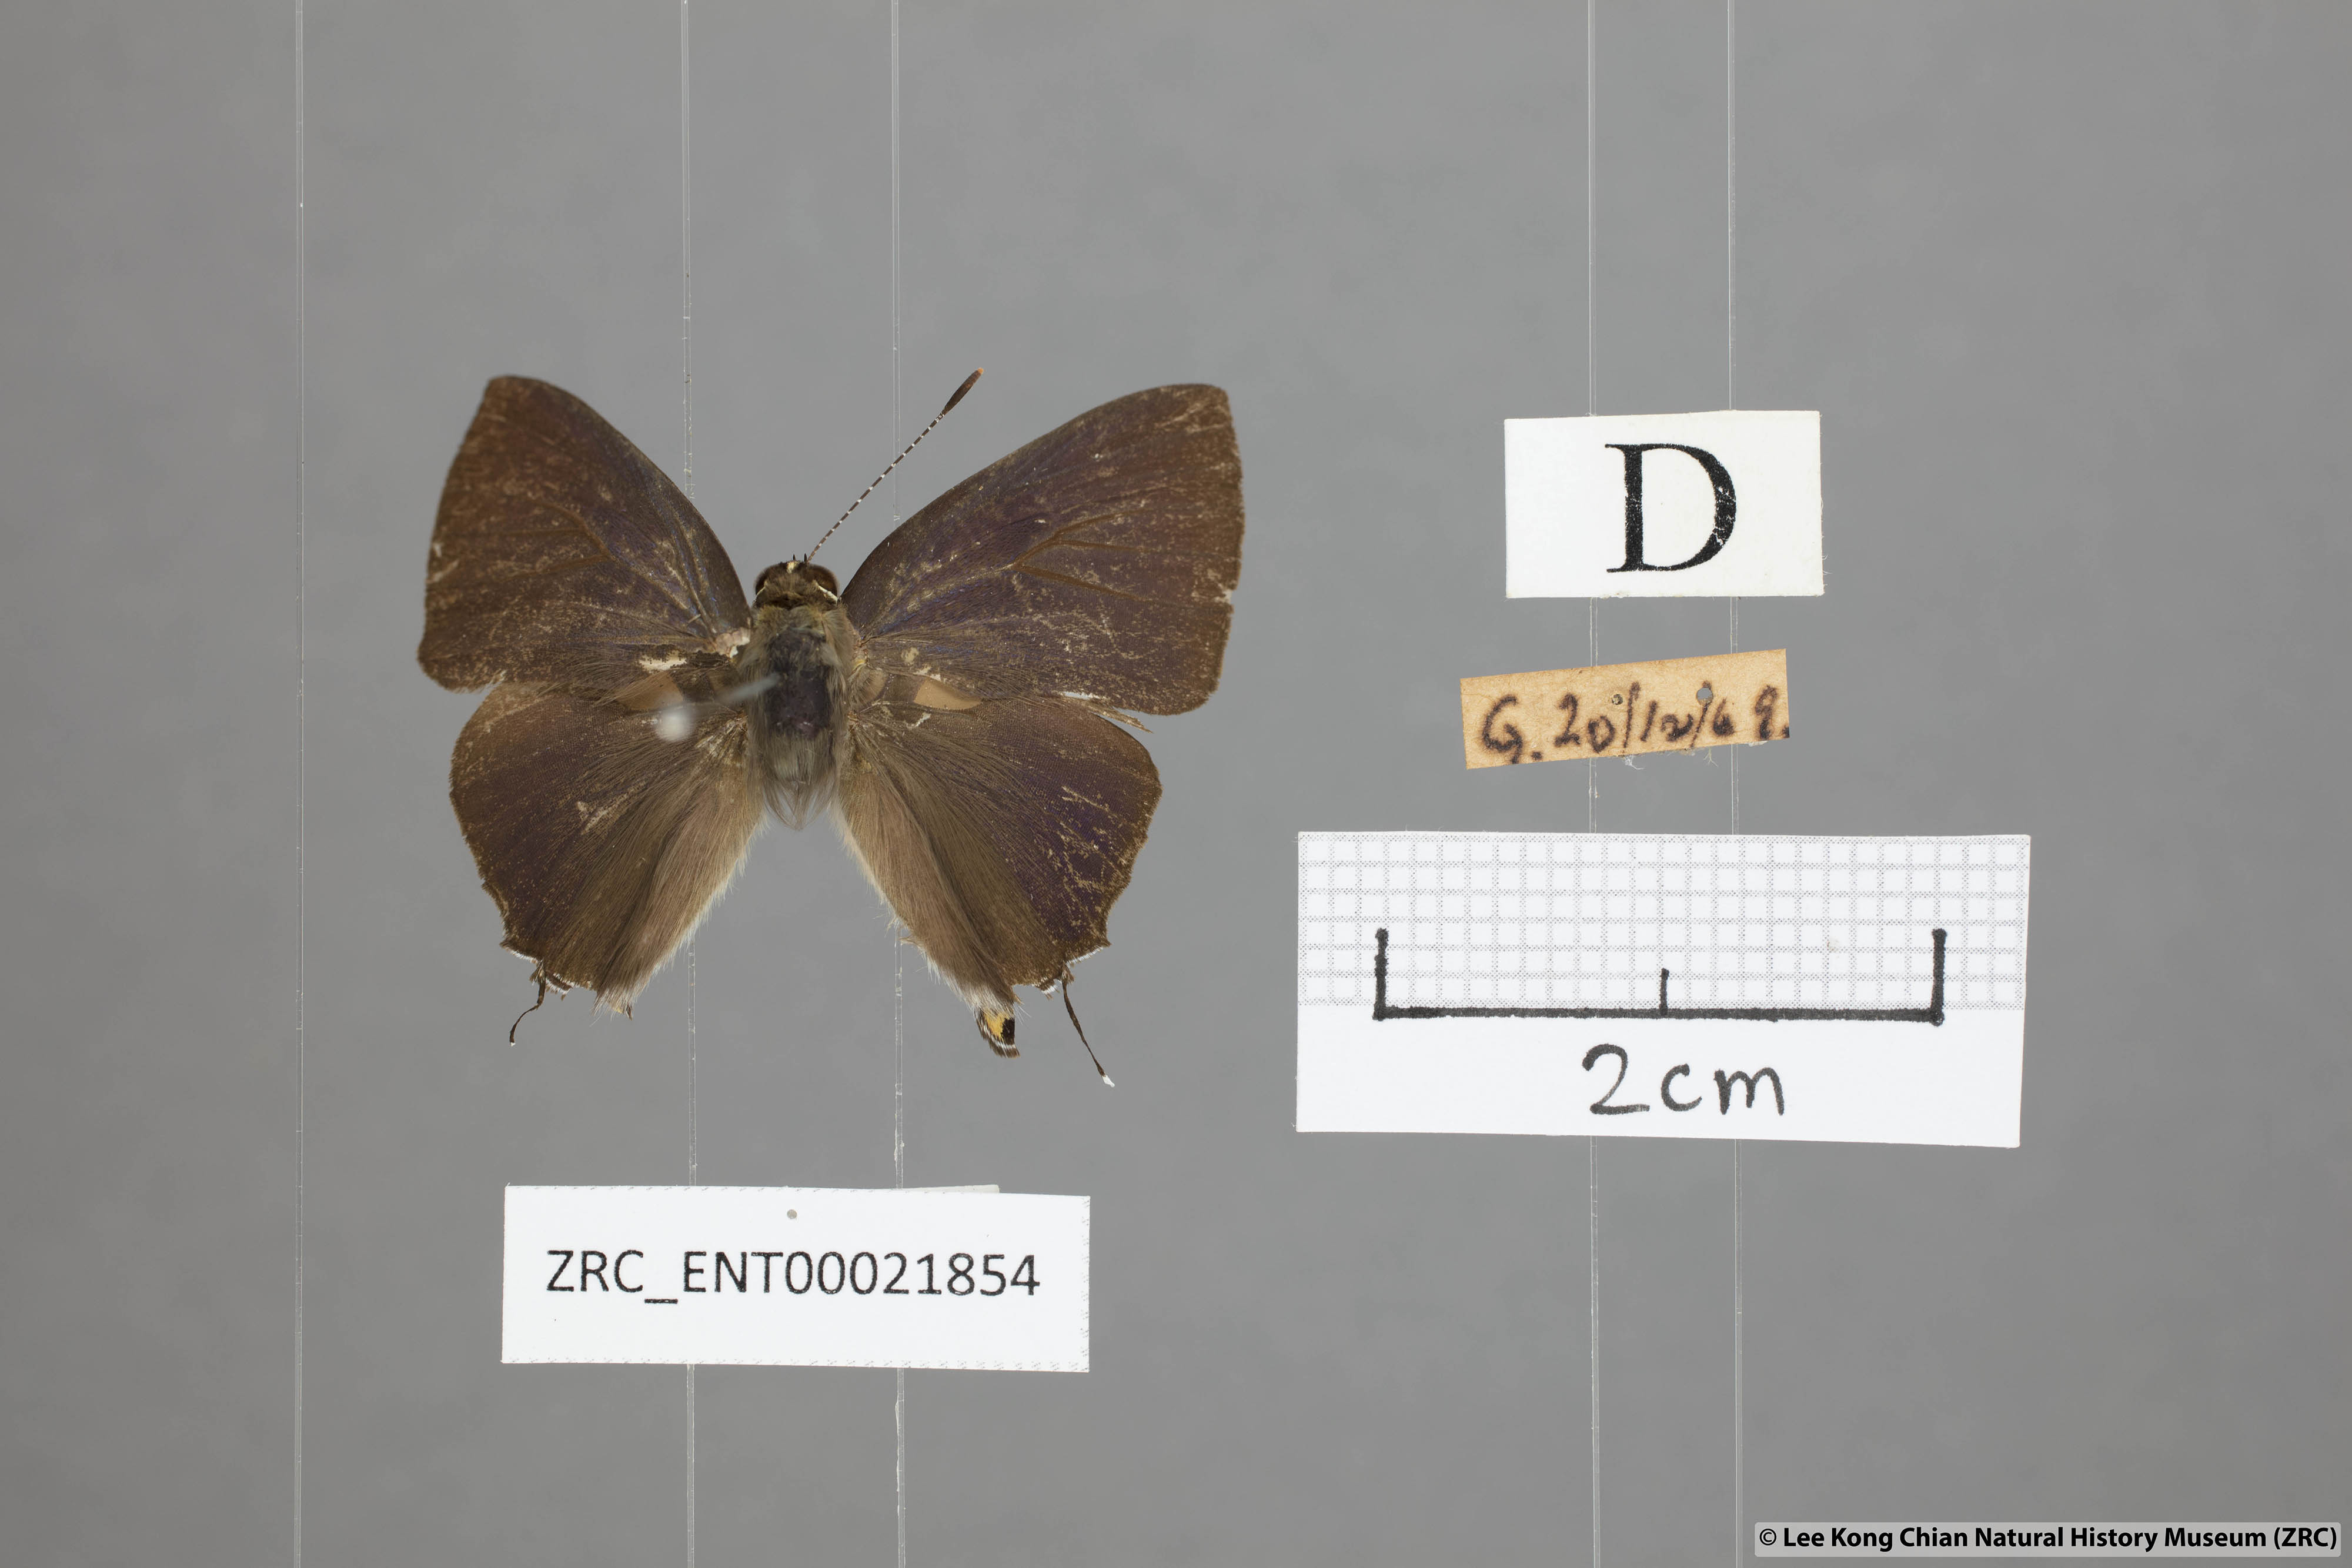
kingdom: Animalia
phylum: Arthropoda
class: Insecta
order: Lepidoptera
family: Lycaenidae
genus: Rapala
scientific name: Rapala manea
